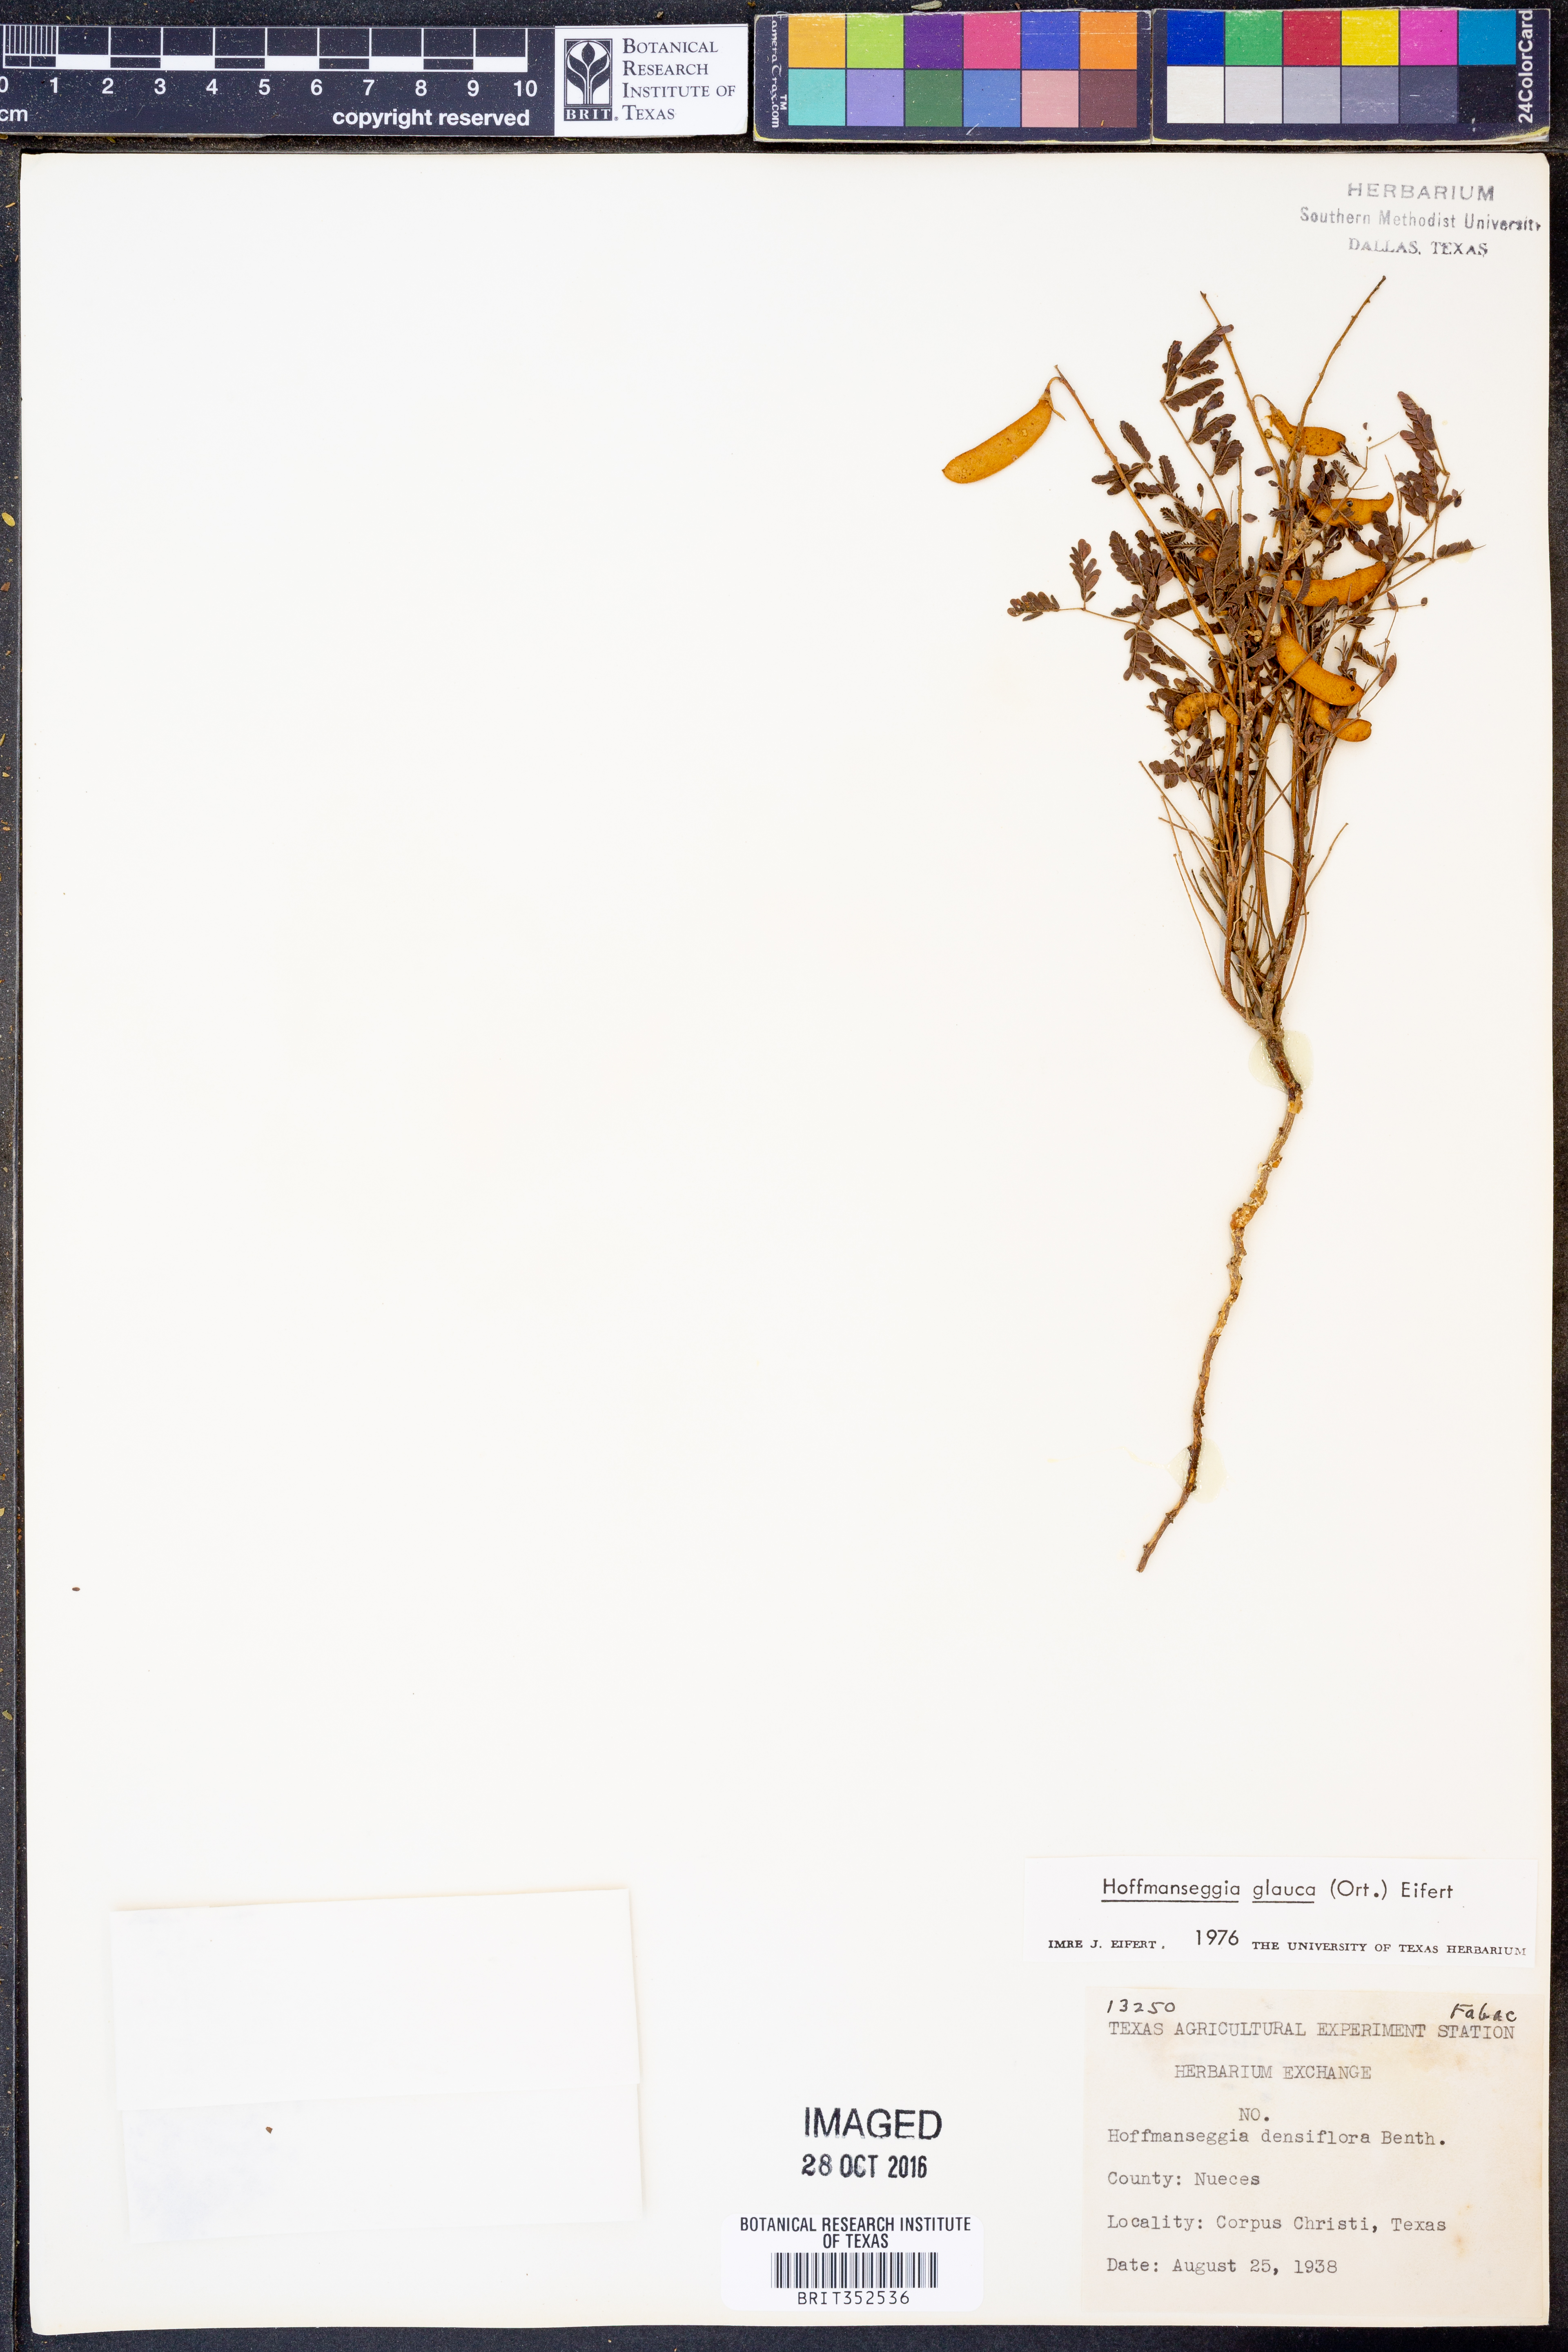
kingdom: Plantae
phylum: Tracheophyta
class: Magnoliopsida
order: Fabales
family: Fabaceae
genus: Hoffmannseggia
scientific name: Hoffmannseggia glauca
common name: Pignut
